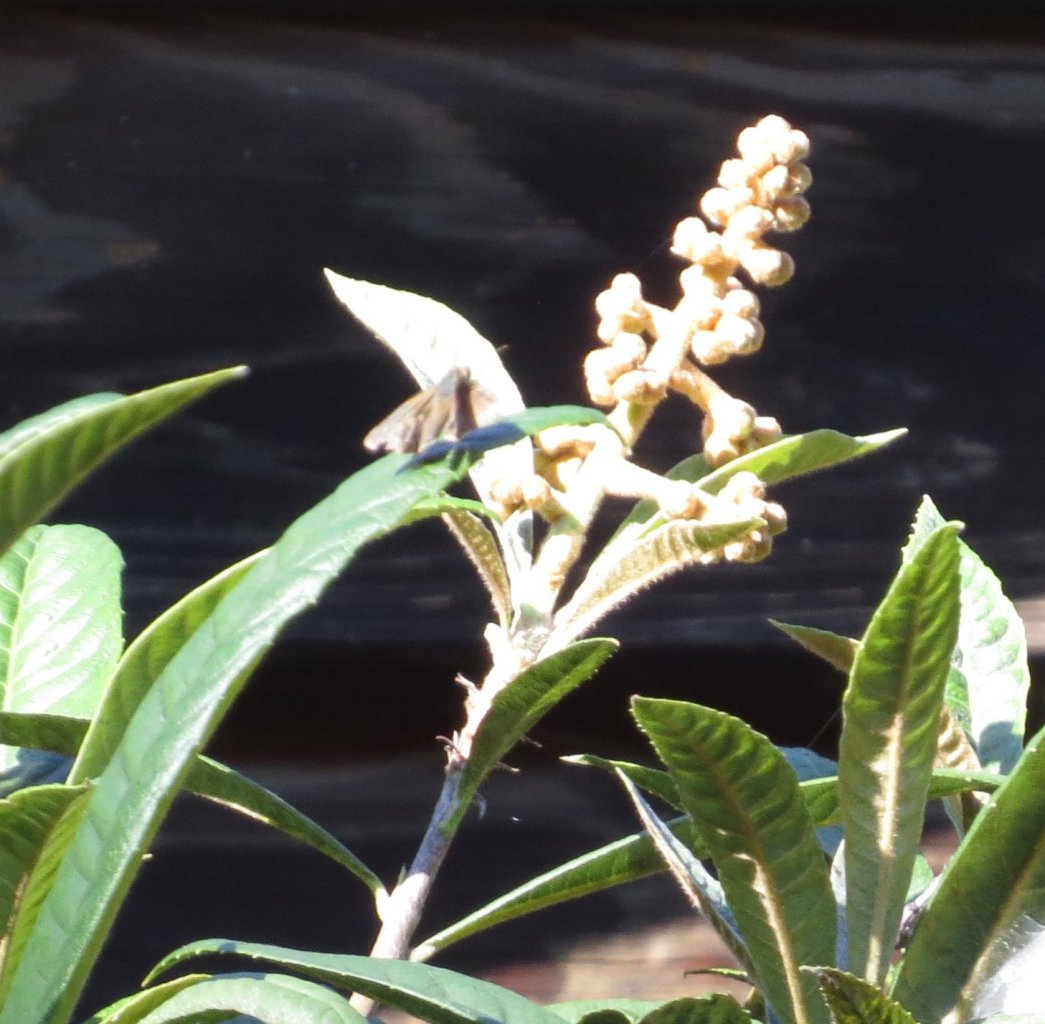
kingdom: Animalia
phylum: Arthropoda
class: Insecta
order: Lepidoptera
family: Hesperiidae
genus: Panoquina
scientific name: Panoquina ocola
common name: Ocola Skipper
